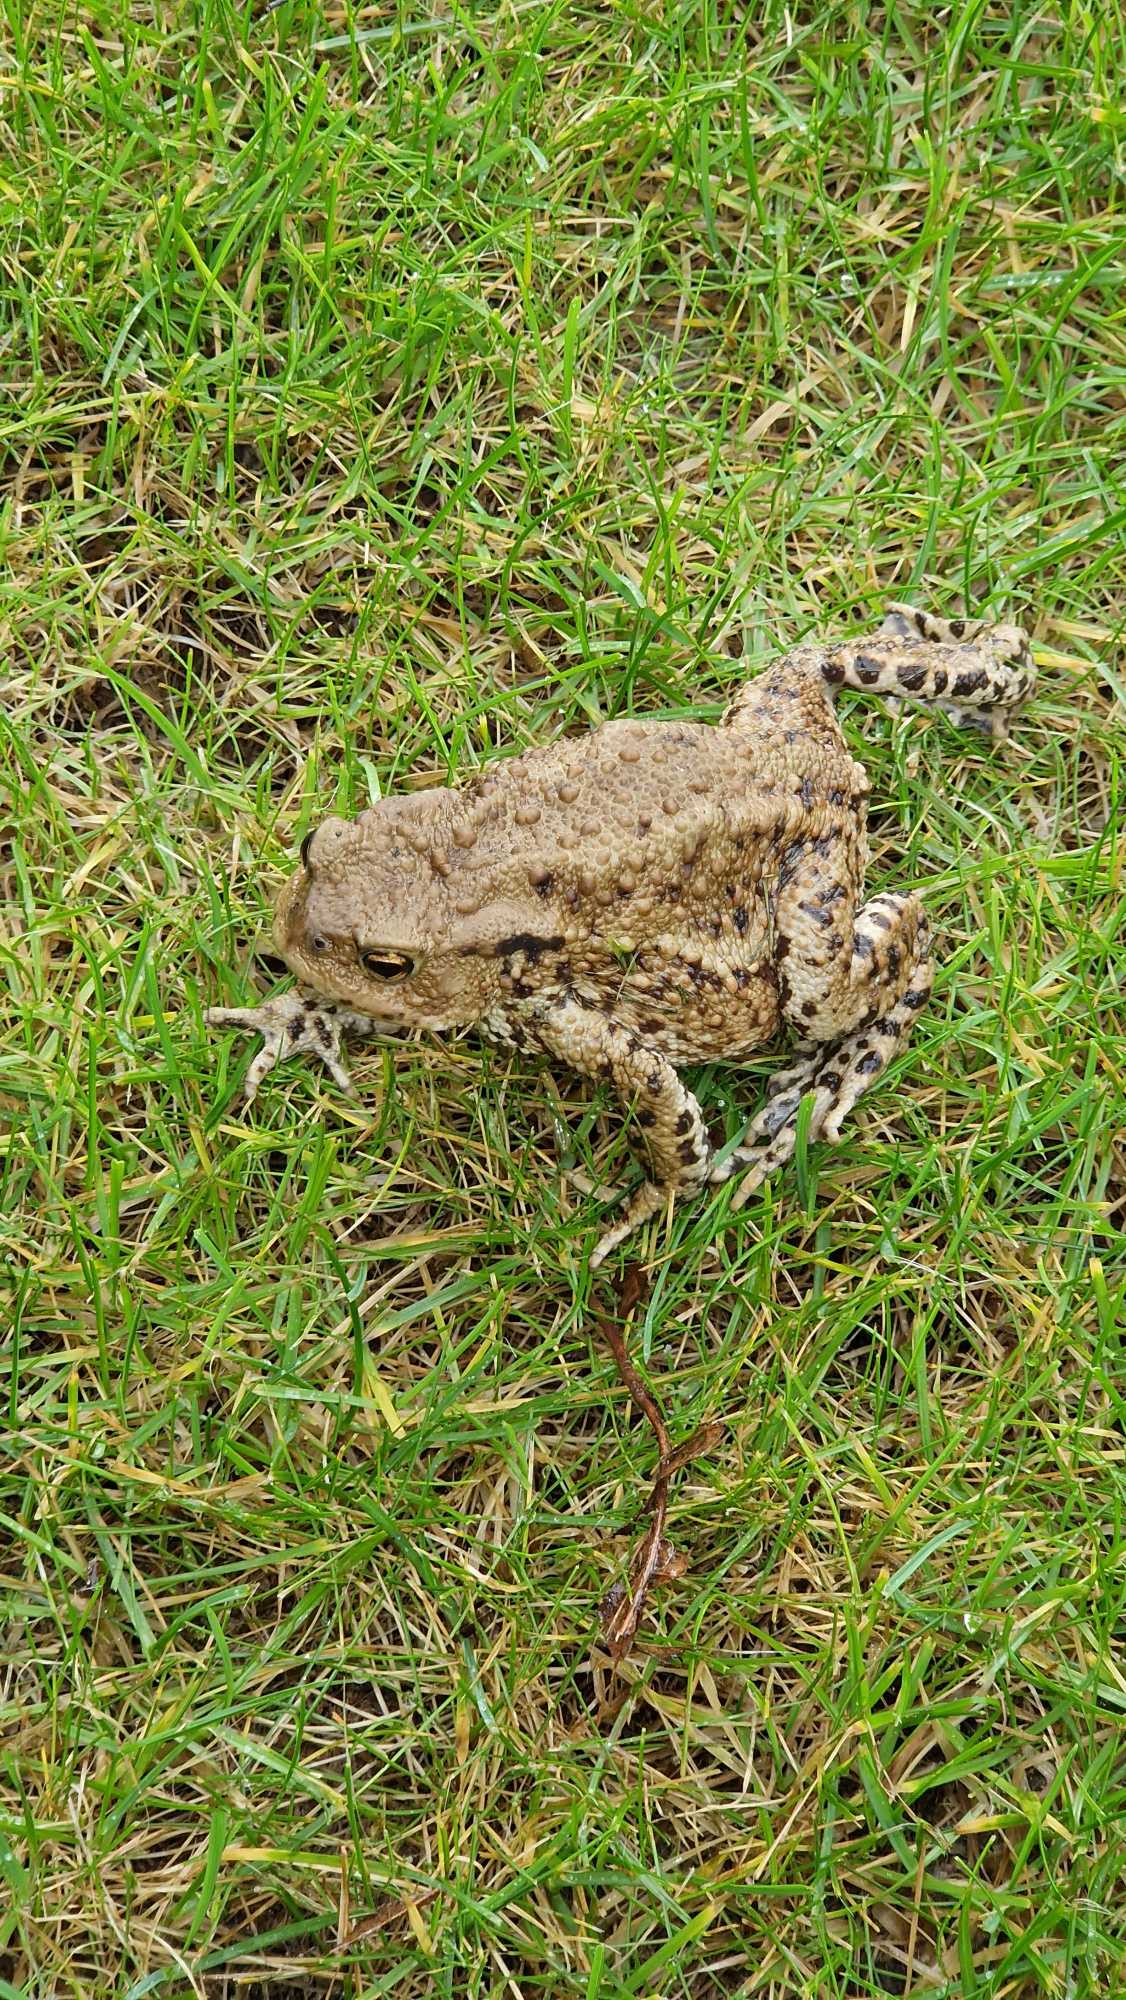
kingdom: Animalia
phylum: Chordata
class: Amphibia
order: Anura
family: Bufonidae
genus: Bufo
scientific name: Bufo bufo
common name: Skrubtudse
